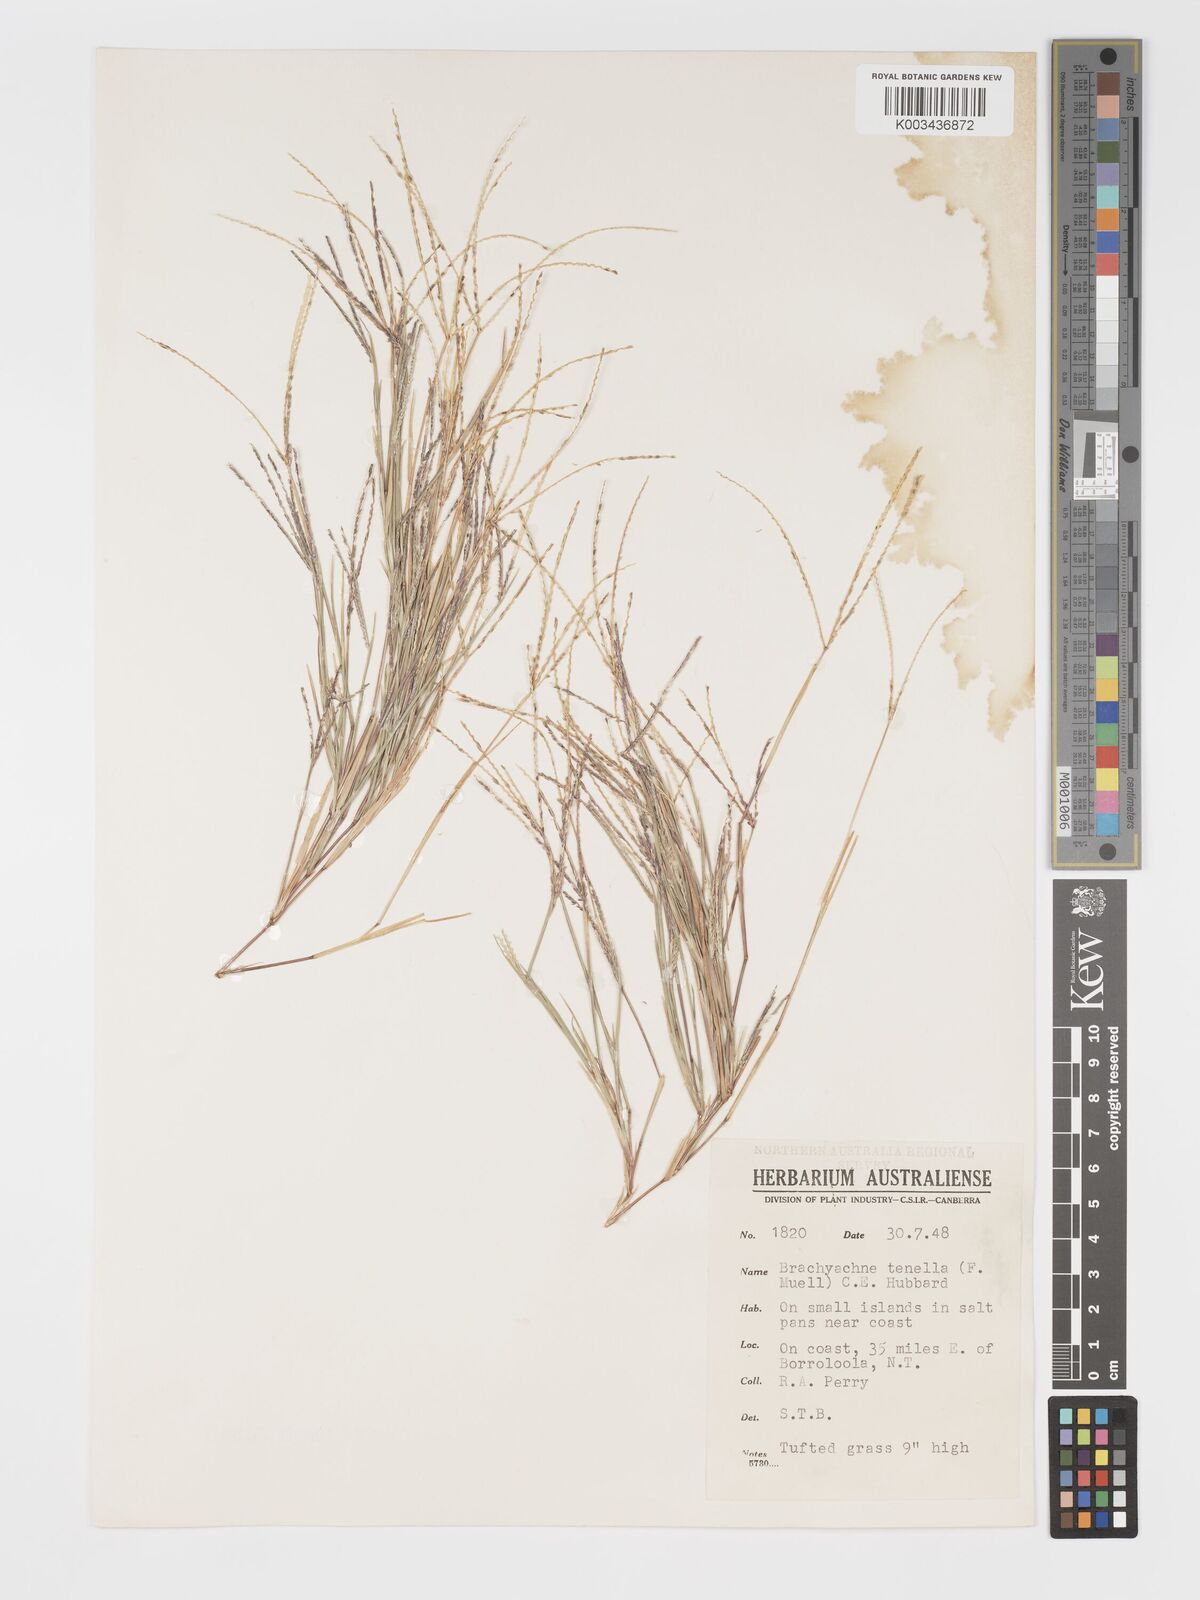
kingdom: Plantae
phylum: Tracheophyta
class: Liliopsida
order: Poales
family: Poaceae
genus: Cynodon
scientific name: Cynodon tenellus
